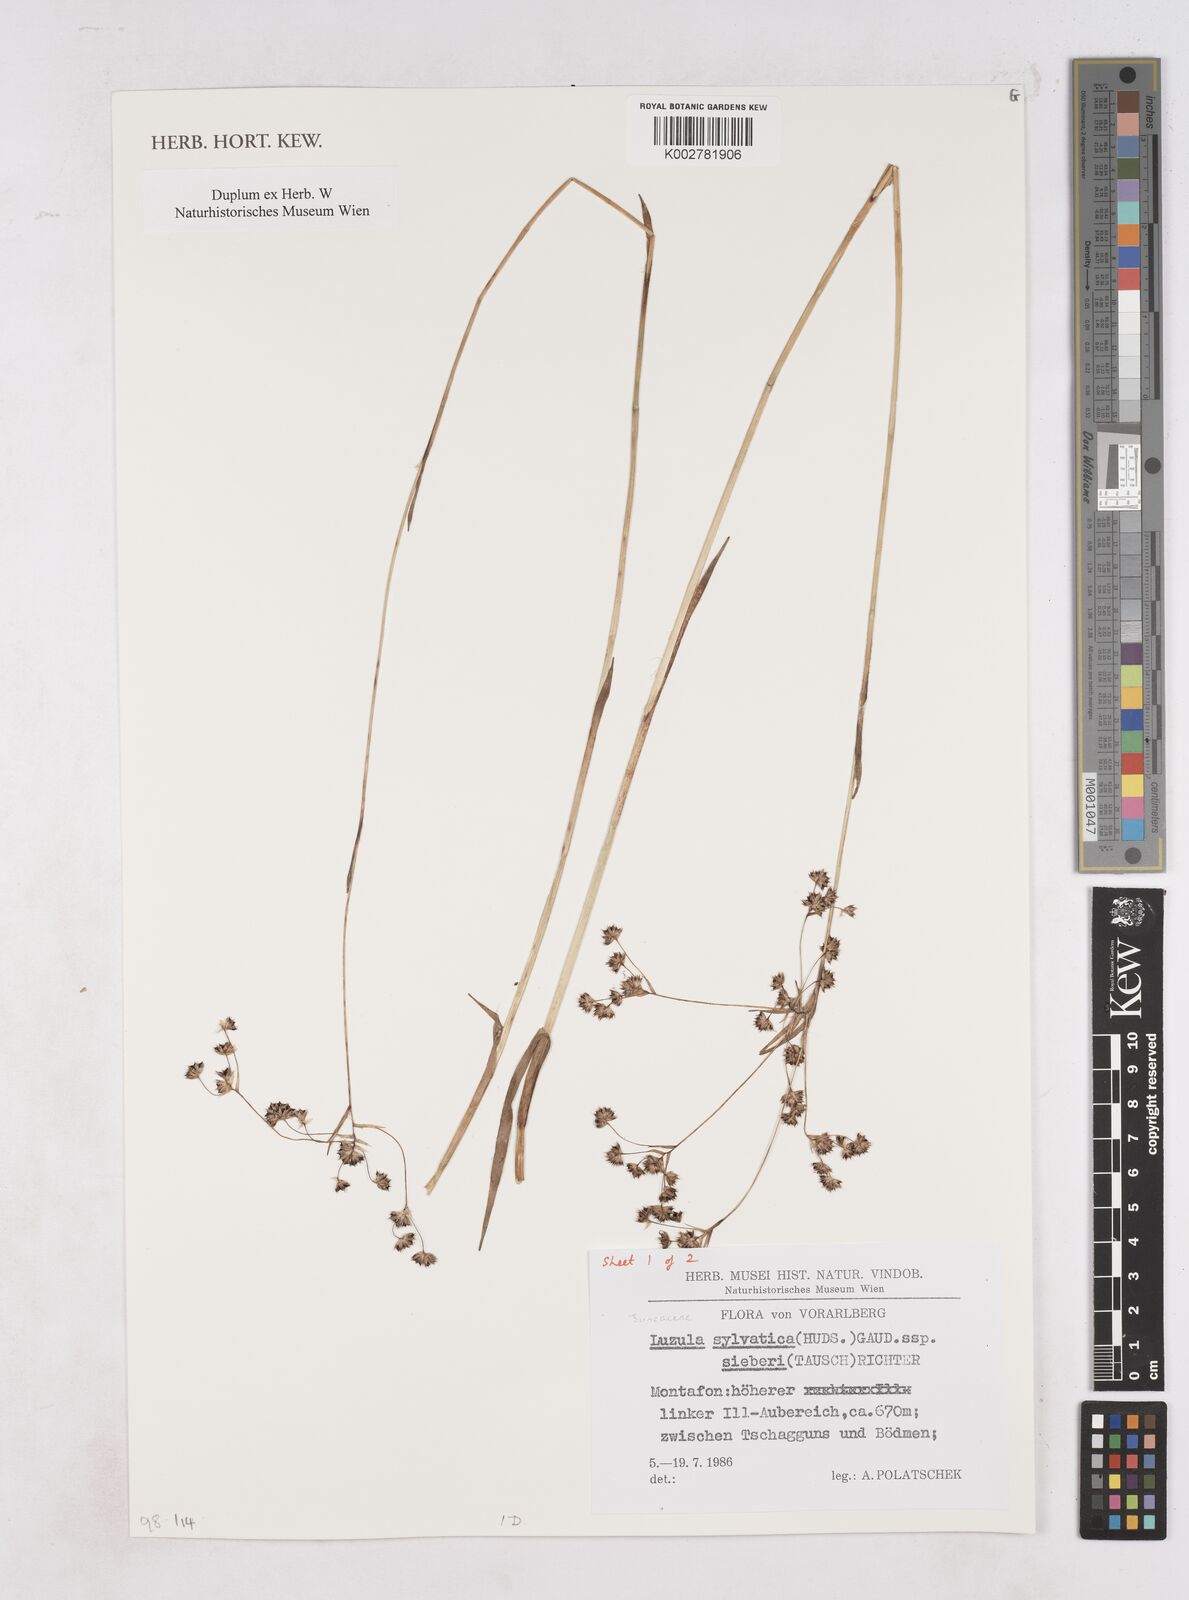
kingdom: Plantae
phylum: Tracheophyta
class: Liliopsida
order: Poales
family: Juncaceae
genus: Luzula
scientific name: Luzula sylvatica
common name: Great wood-rush
